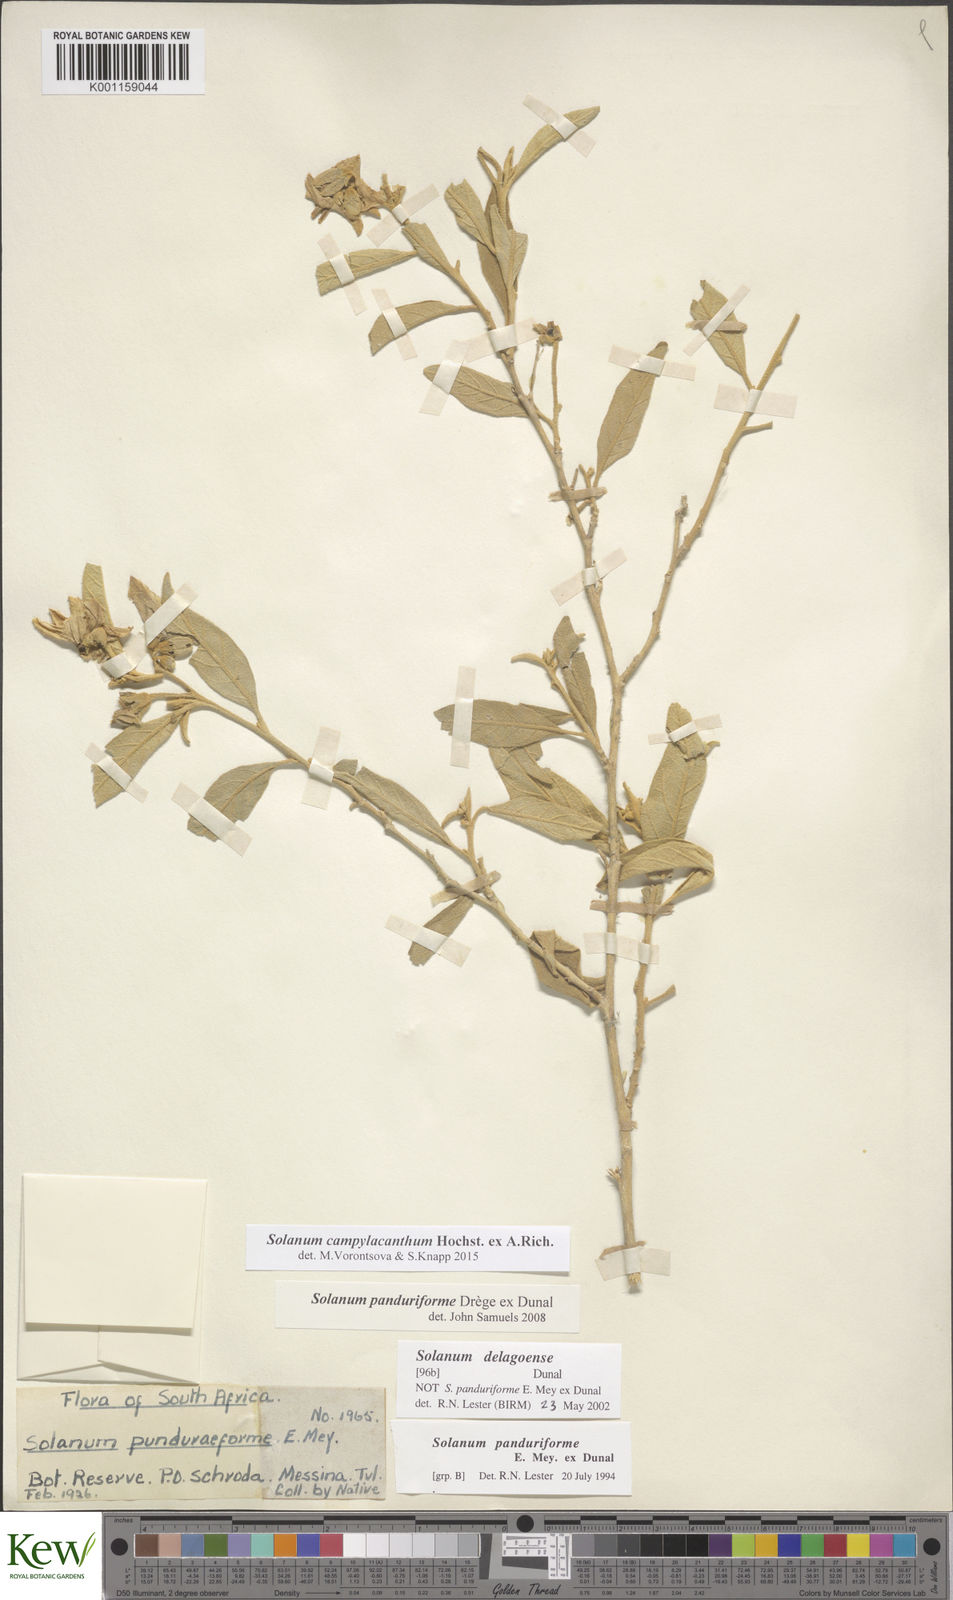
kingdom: Plantae
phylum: Tracheophyta
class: Magnoliopsida
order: Solanales
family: Solanaceae
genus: Solanum
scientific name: Solanum campylacanthum
